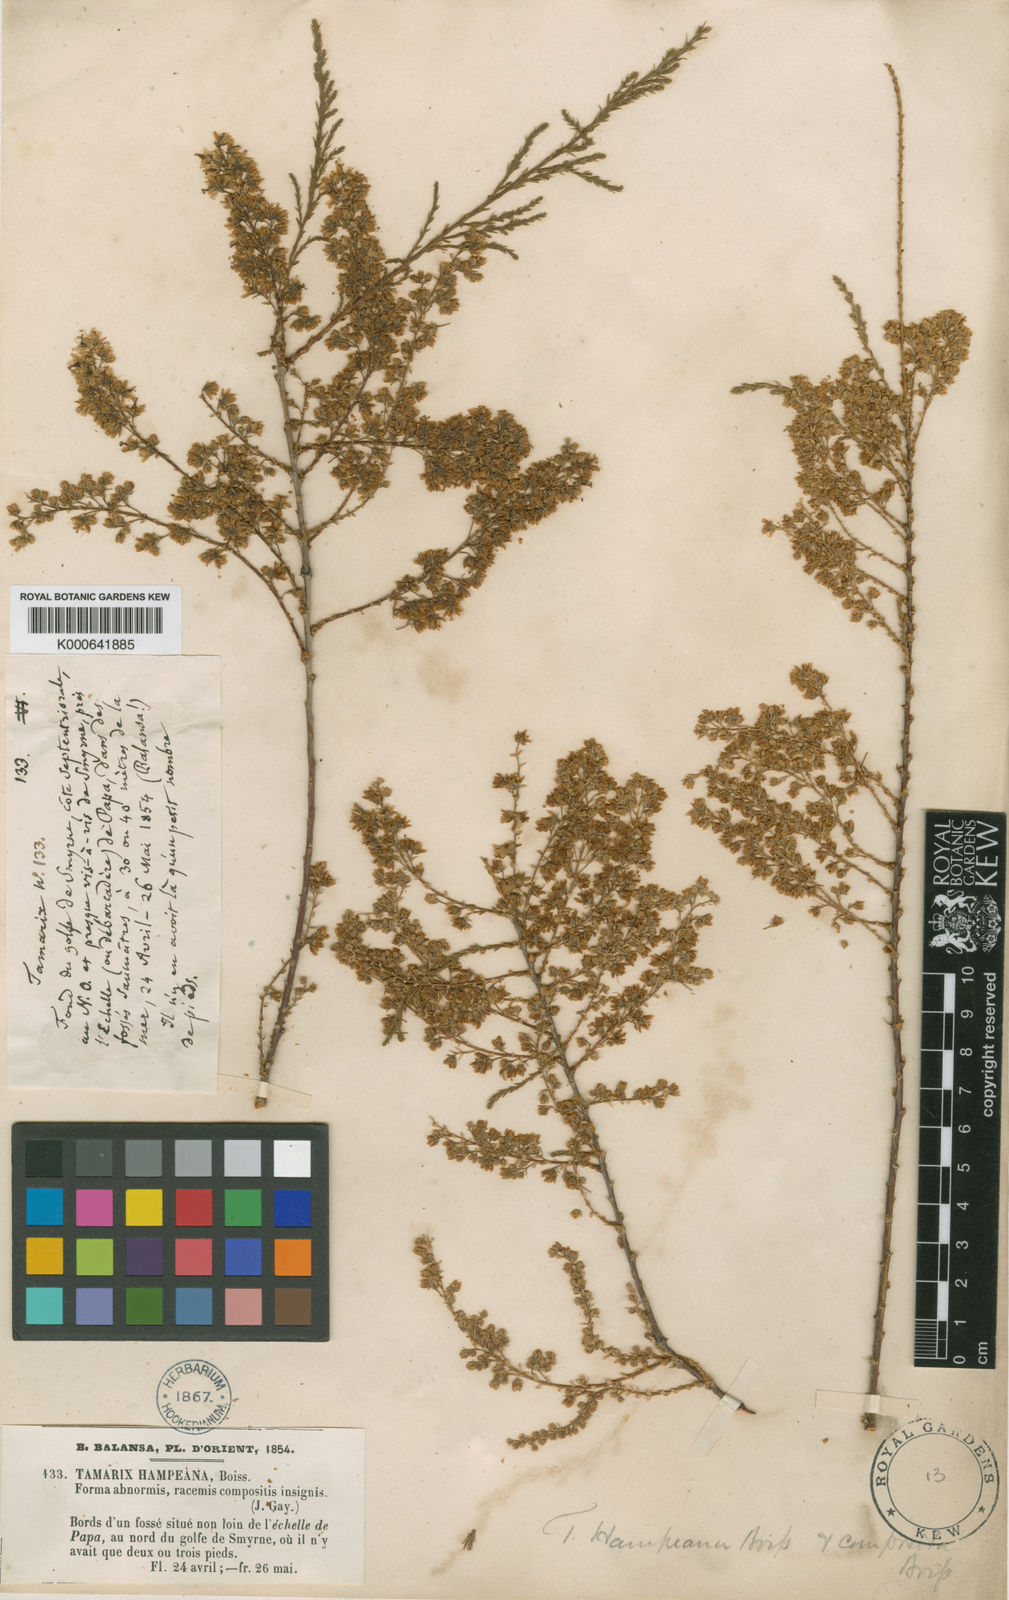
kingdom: Plantae
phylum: Tracheophyta
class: Magnoliopsida
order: Caryophyllales
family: Tamaricaceae
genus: Tamarix
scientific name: Tamarix hampeana
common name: Hampe’s tamarisk
